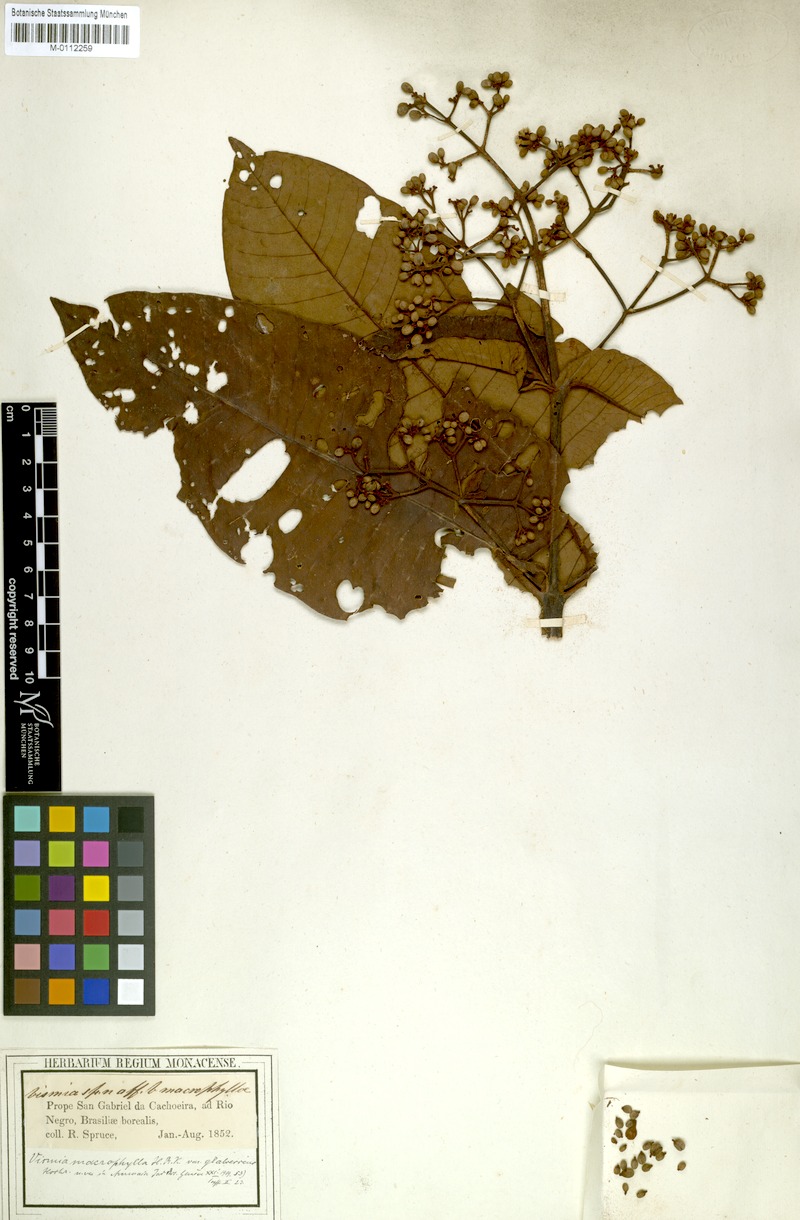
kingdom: Plantae
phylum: Tracheophyta
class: Magnoliopsida
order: Malpighiales
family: Hypericaceae
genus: Vismia
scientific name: Vismia macrophylla
